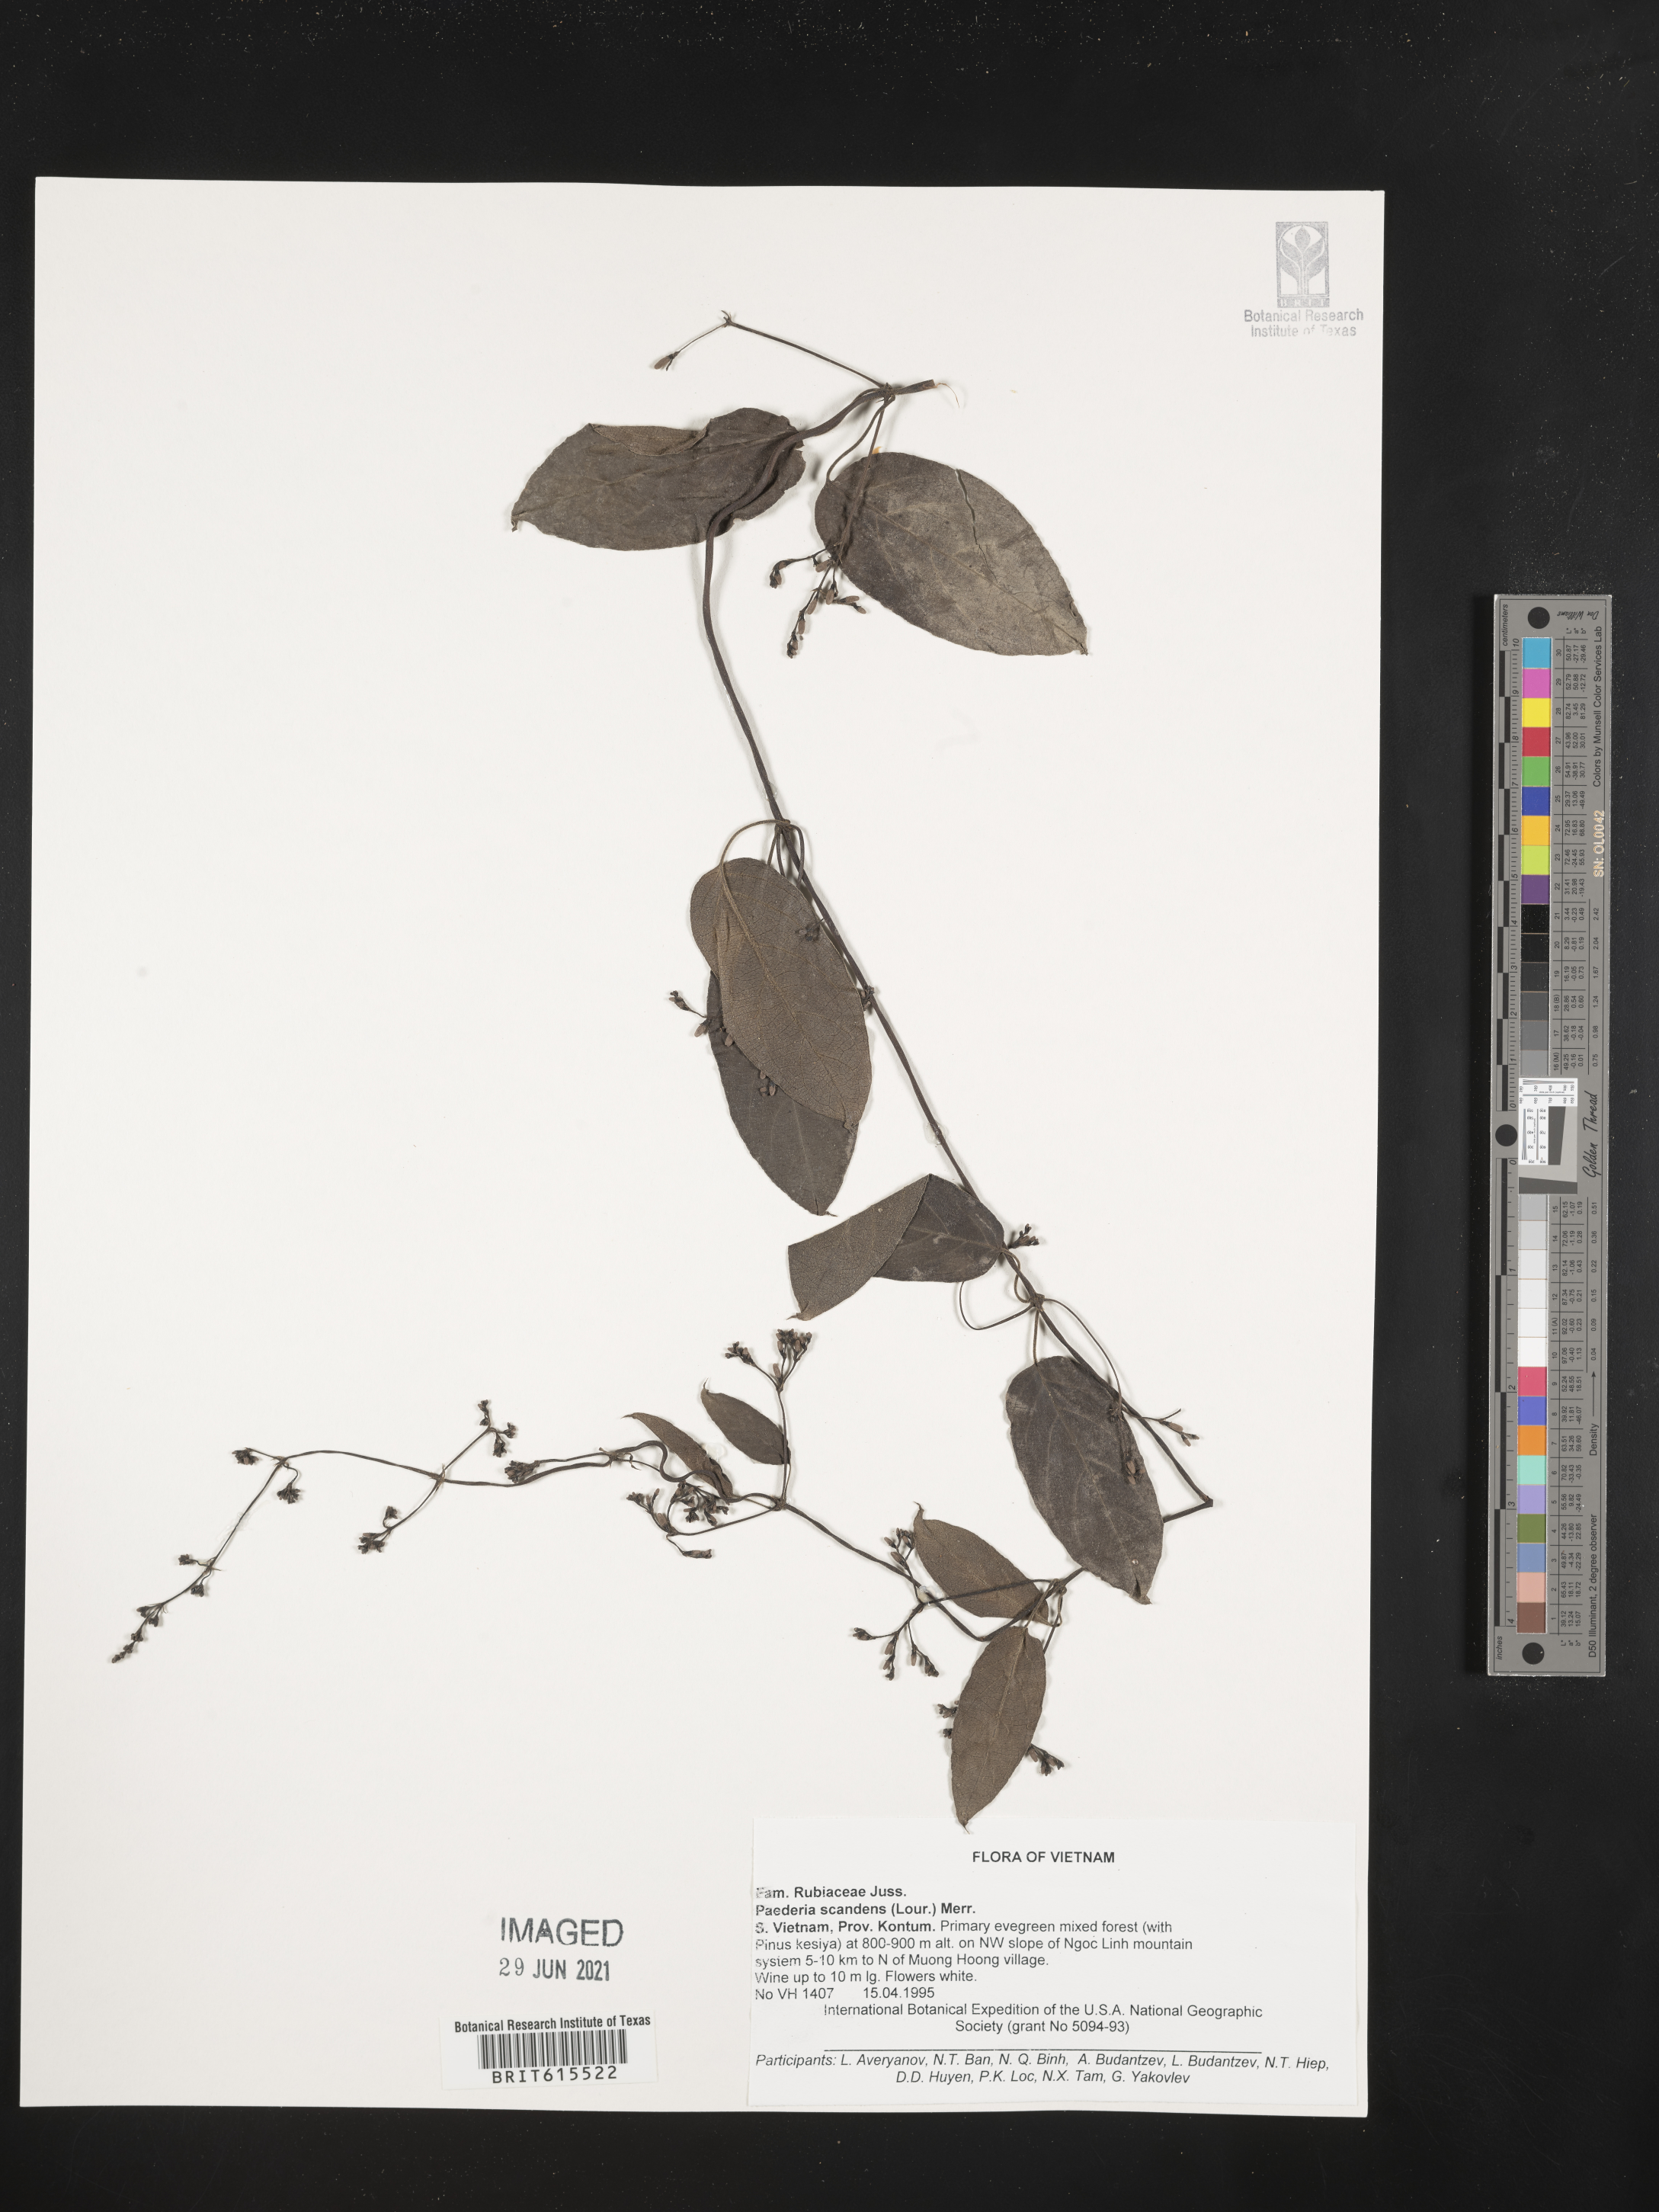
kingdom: Plantae
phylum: Tracheophyta
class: Magnoliopsida
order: Gentianales
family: Rubiaceae
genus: Paederia
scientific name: Paederia foetida
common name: Stinkvine
